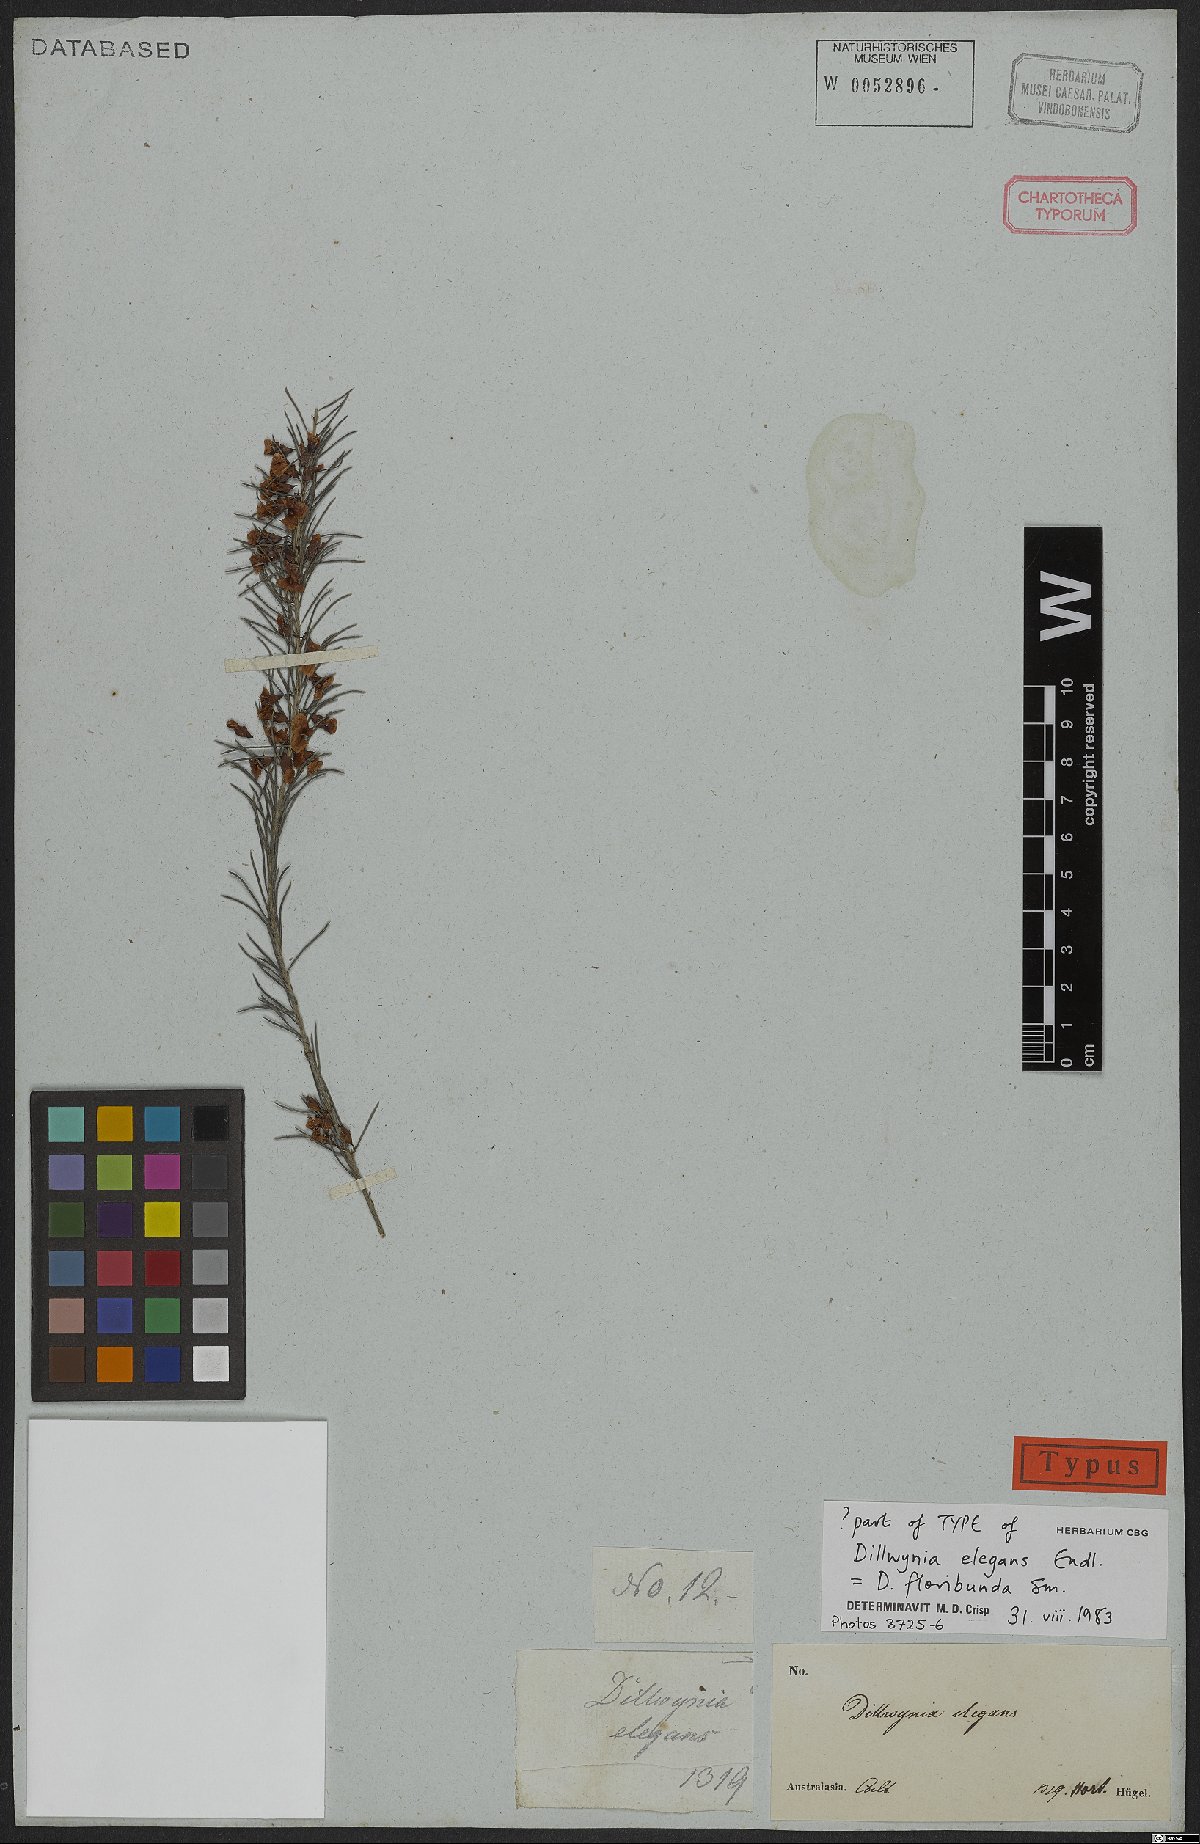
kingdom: Plantae
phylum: Tracheophyta
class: Magnoliopsida
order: Fabales
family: Fabaceae
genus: Dillwynia
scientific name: Dillwynia floribunda
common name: Eggs-and-bacon
